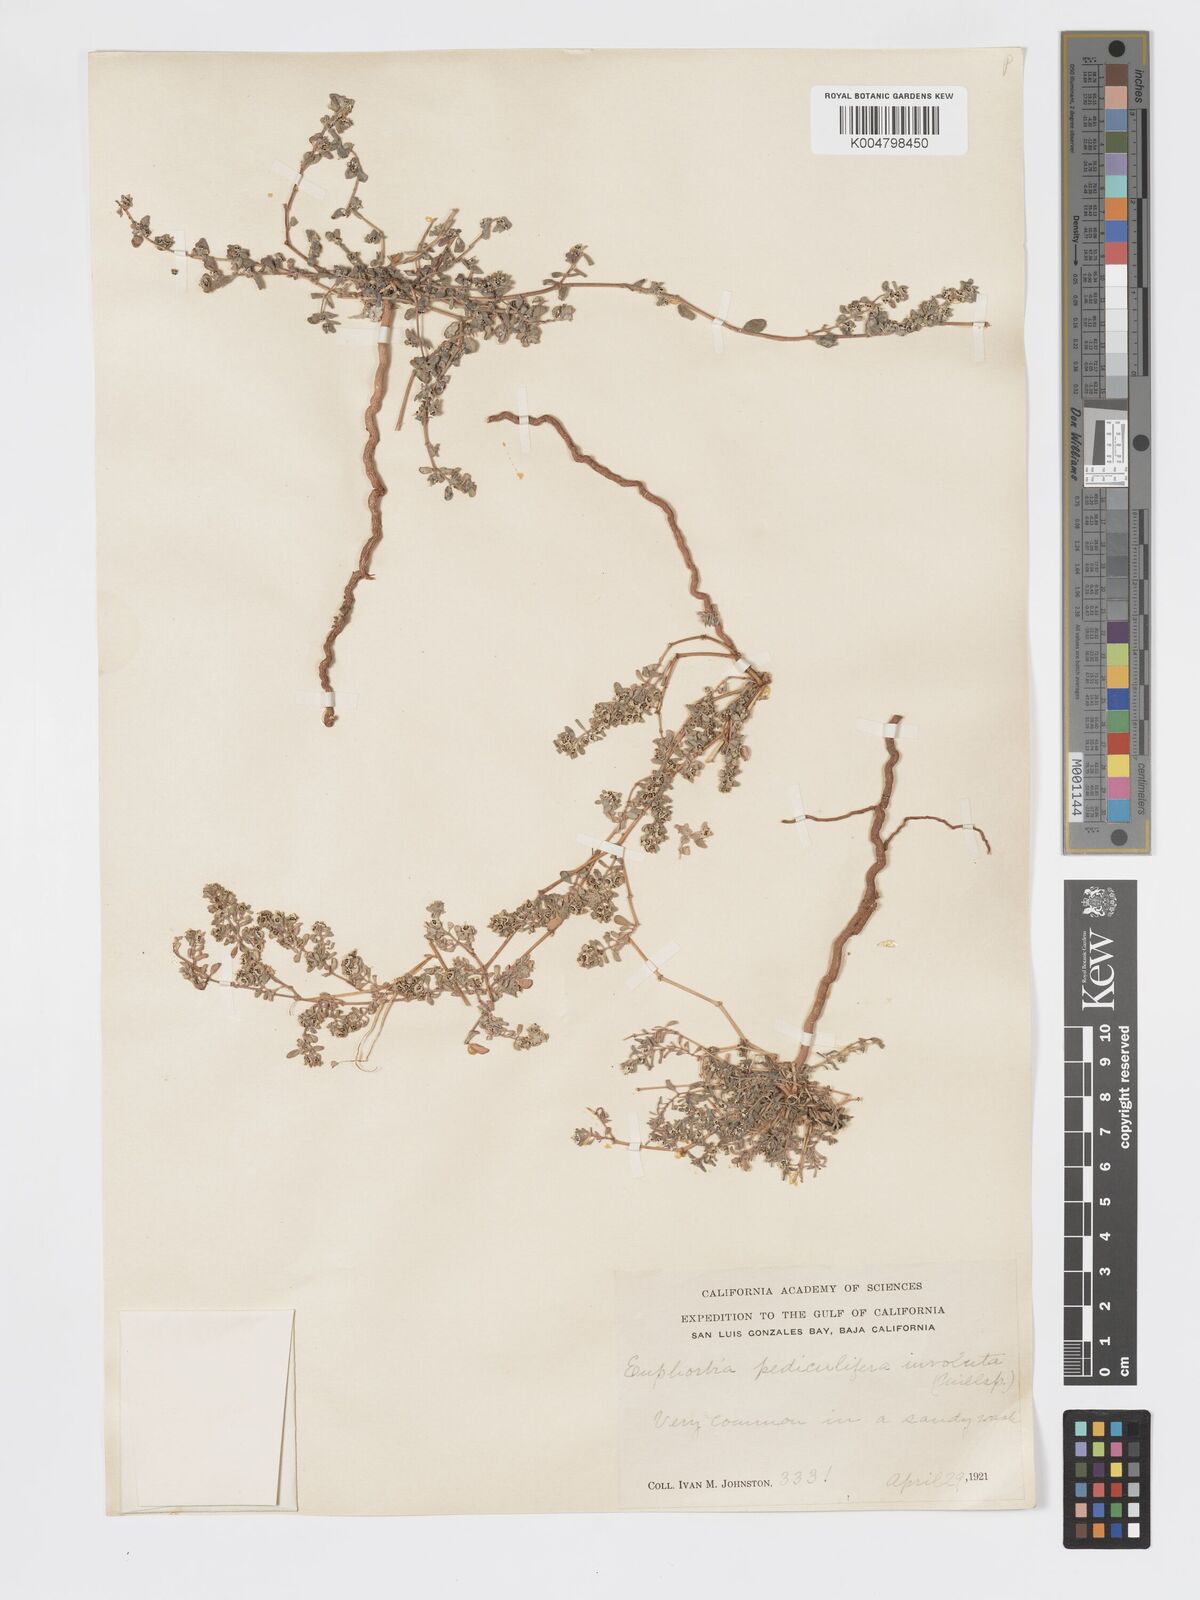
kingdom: Plantae
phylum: Tracheophyta
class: Magnoliopsida
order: Malpighiales
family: Euphorbiaceae
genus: Euphorbia
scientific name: Euphorbia pediculifera
